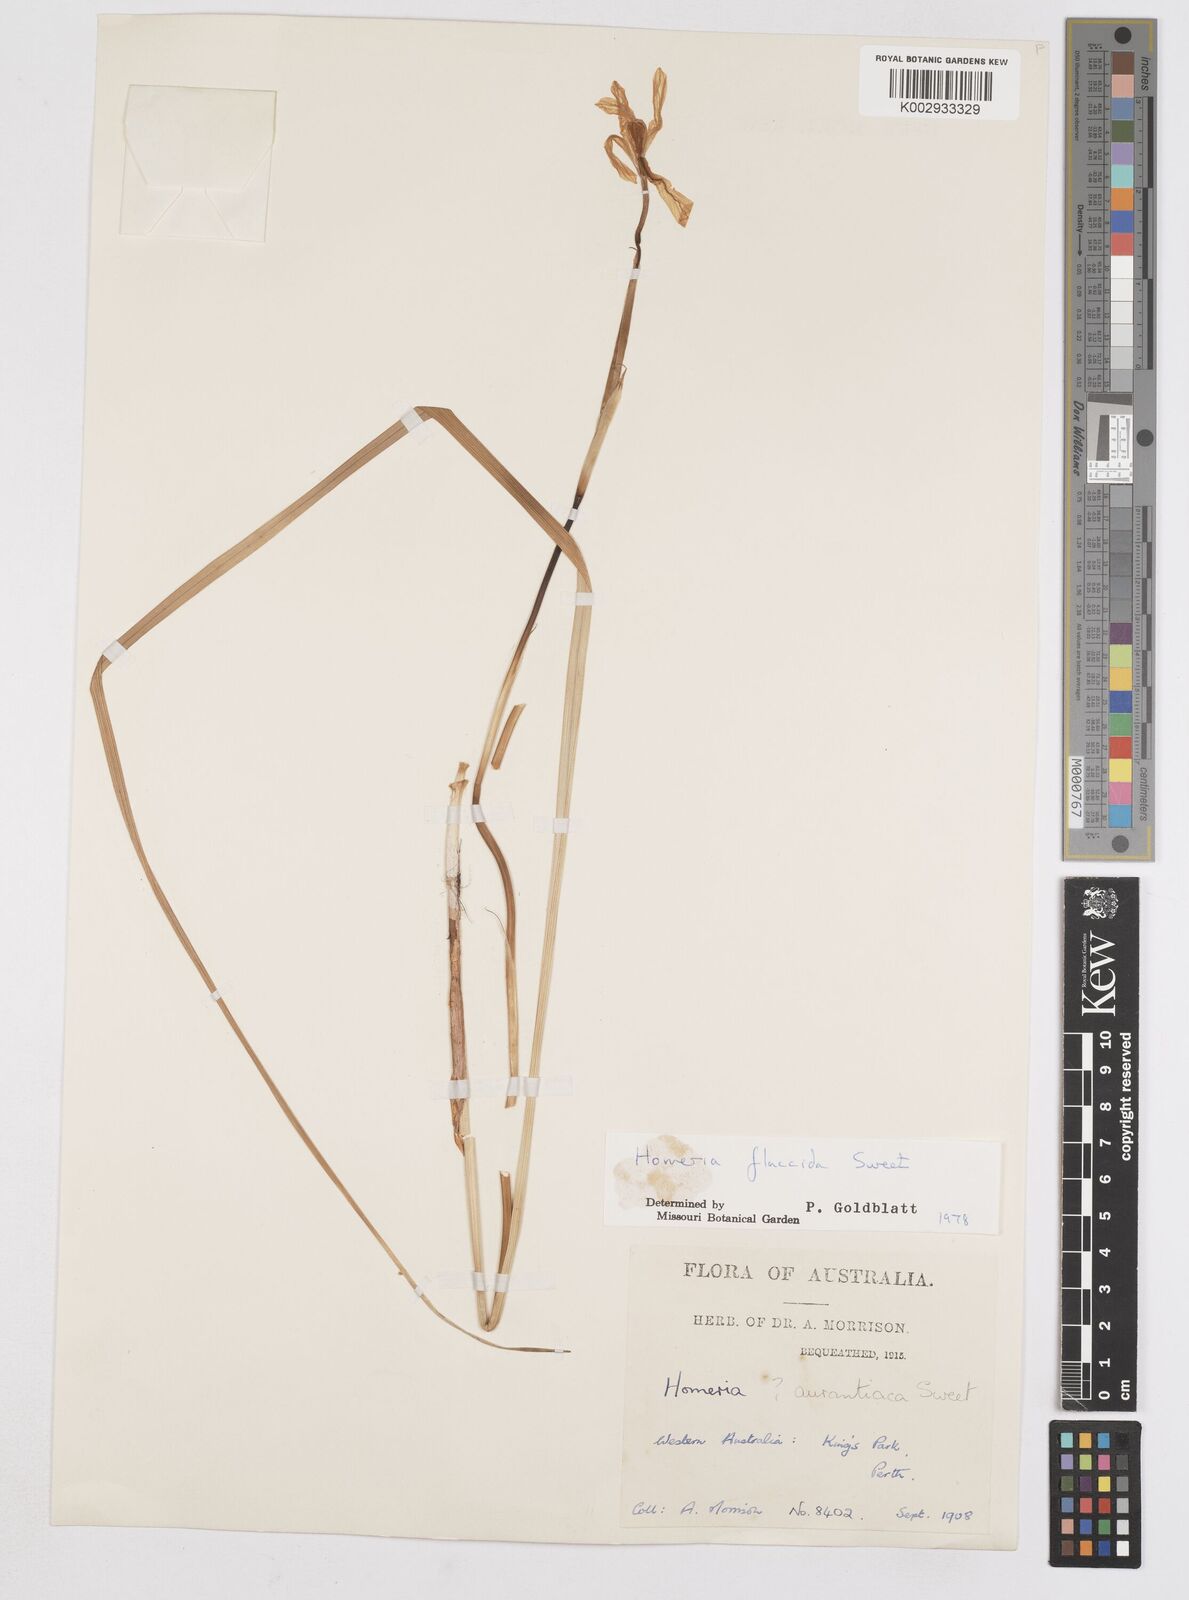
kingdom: Plantae
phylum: Tracheophyta
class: Liliopsida
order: Asparagales
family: Iridaceae
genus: Moraea
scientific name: Moraea flaccida
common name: One-leaf cape-tulip
